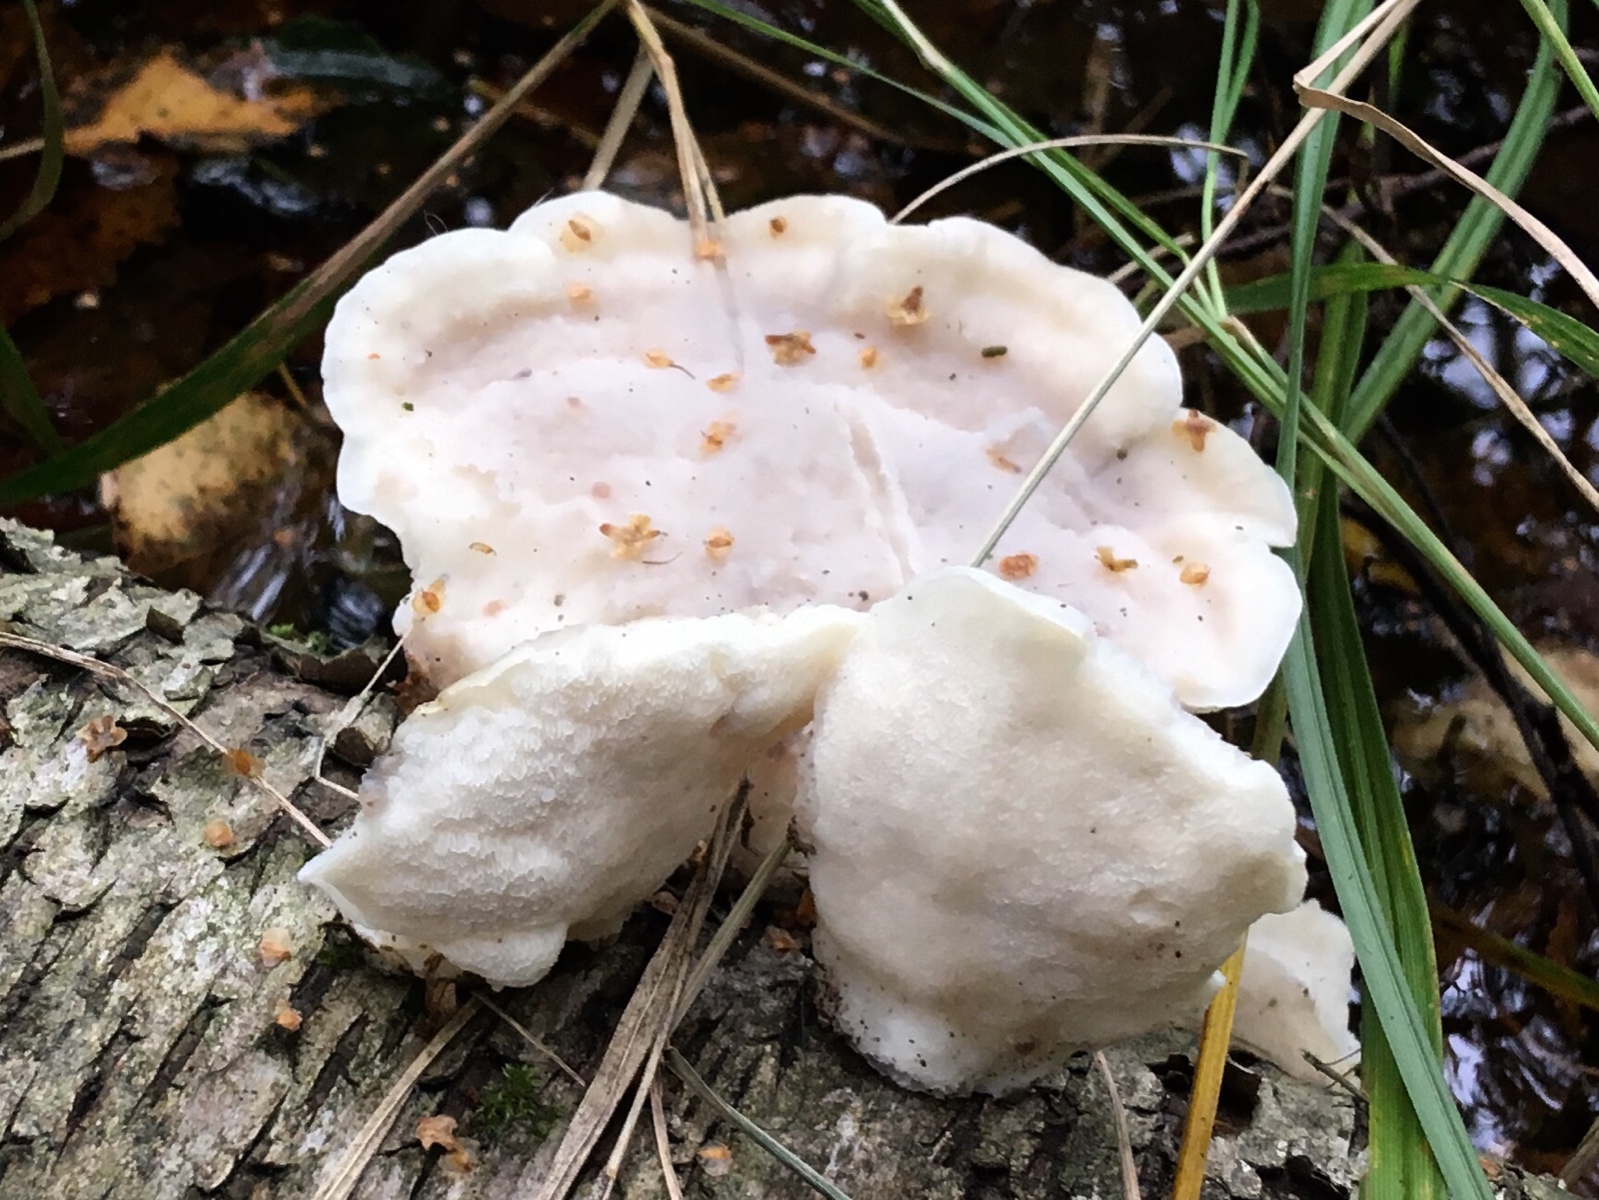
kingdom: Fungi
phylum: Basidiomycota
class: Agaricomycetes
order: Polyporales
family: Incrustoporiaceae
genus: Tyromyces
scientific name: Tyromyces lacteus
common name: mælkehvid kødporesvamp
